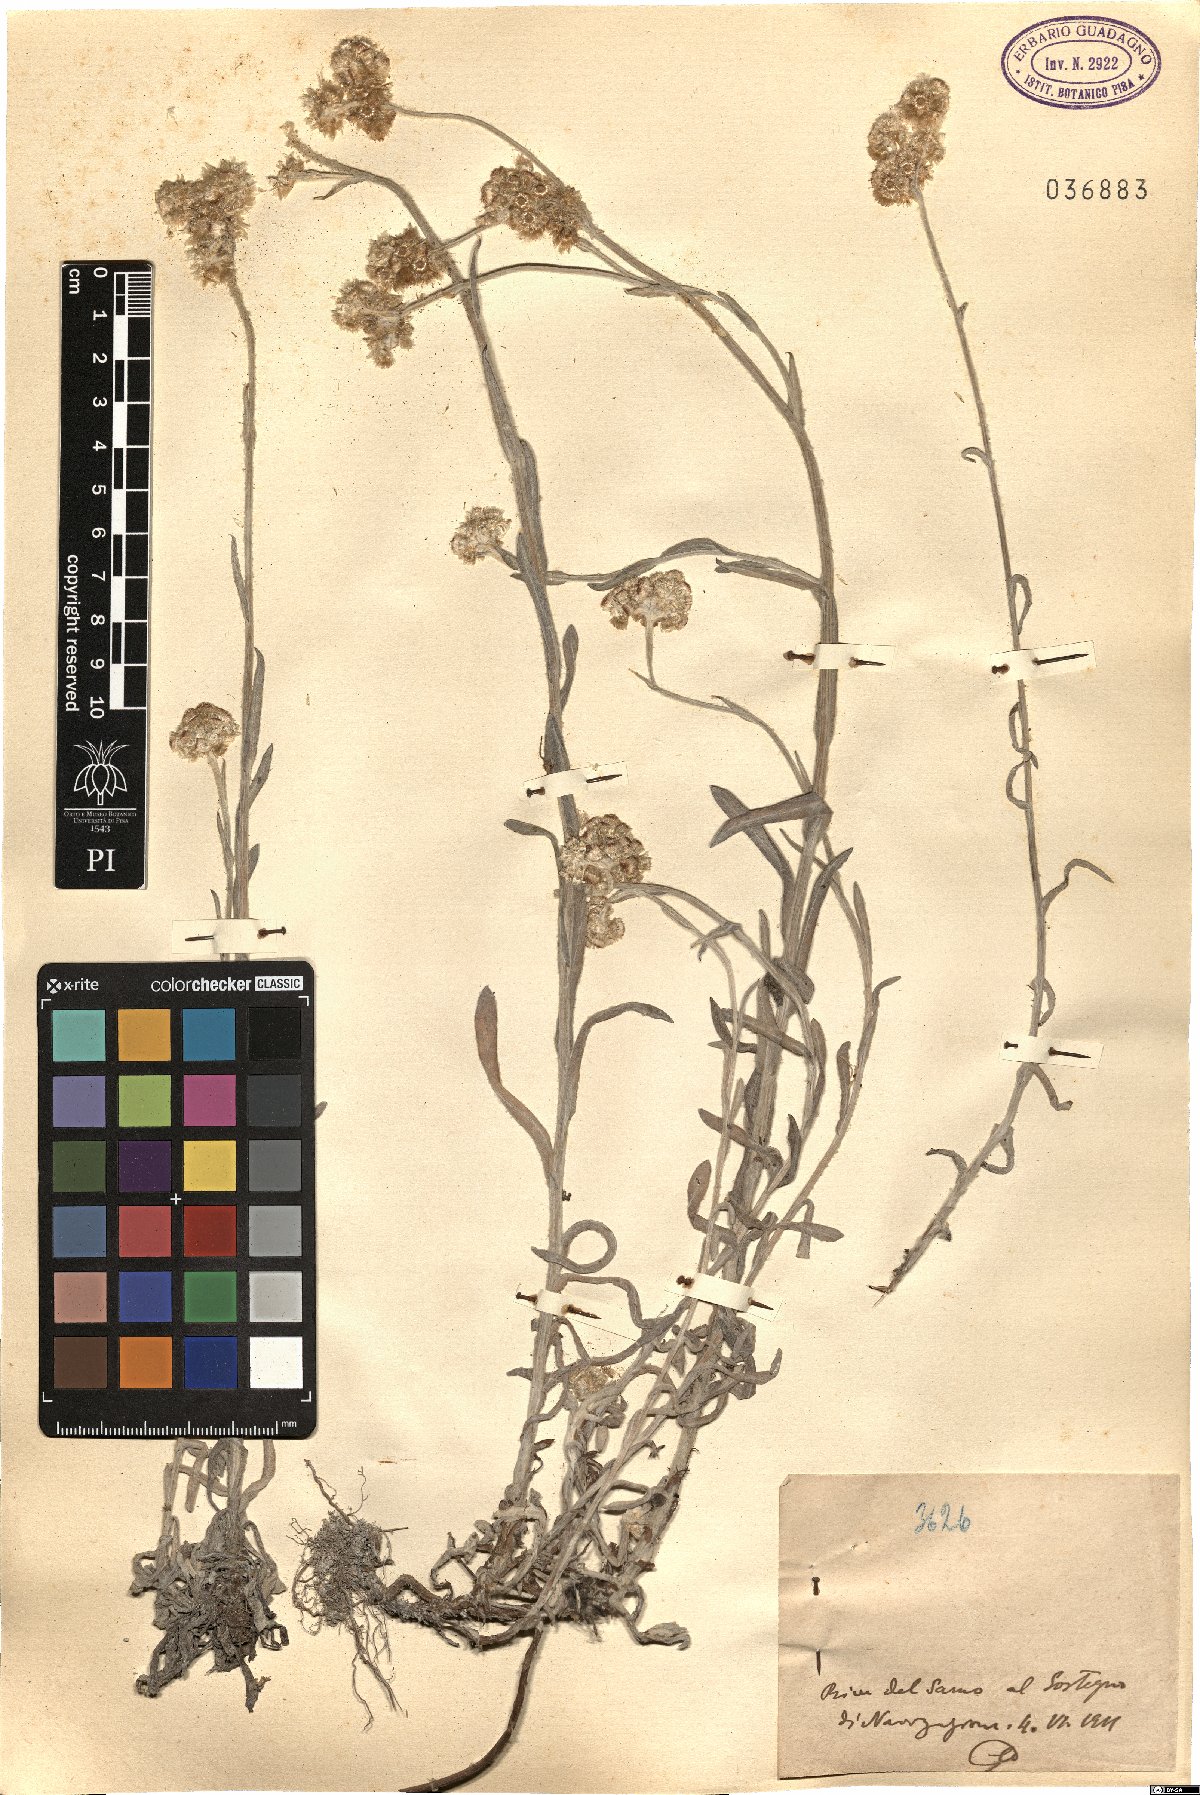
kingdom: Plantae
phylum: Tracheophyta
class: Magnoliopsida
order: Asterales
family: Asteraceae
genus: Gnaphalium
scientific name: Gnaphalium
